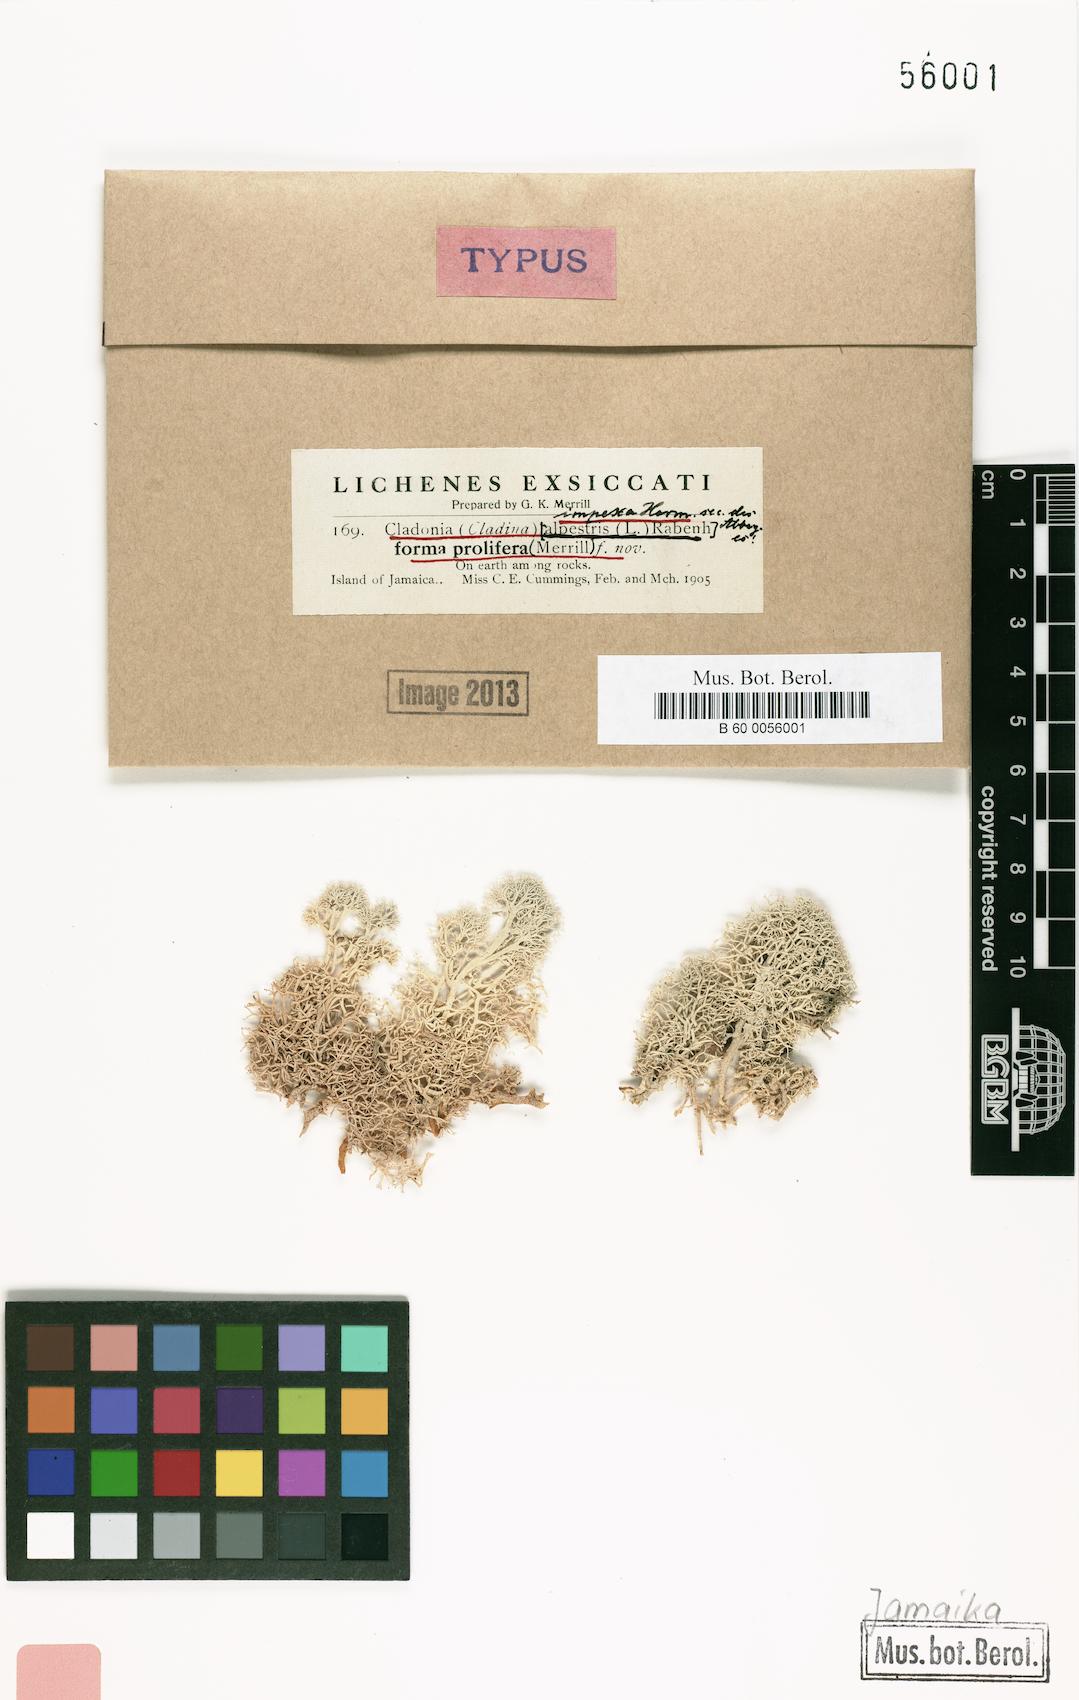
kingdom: Fungi
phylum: Ascomycota
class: Lecanoromycetes
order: Lecanorales
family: Cladoniaceae
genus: Cladonia
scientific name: Cladonia portentosa
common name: Reindeer lichen
